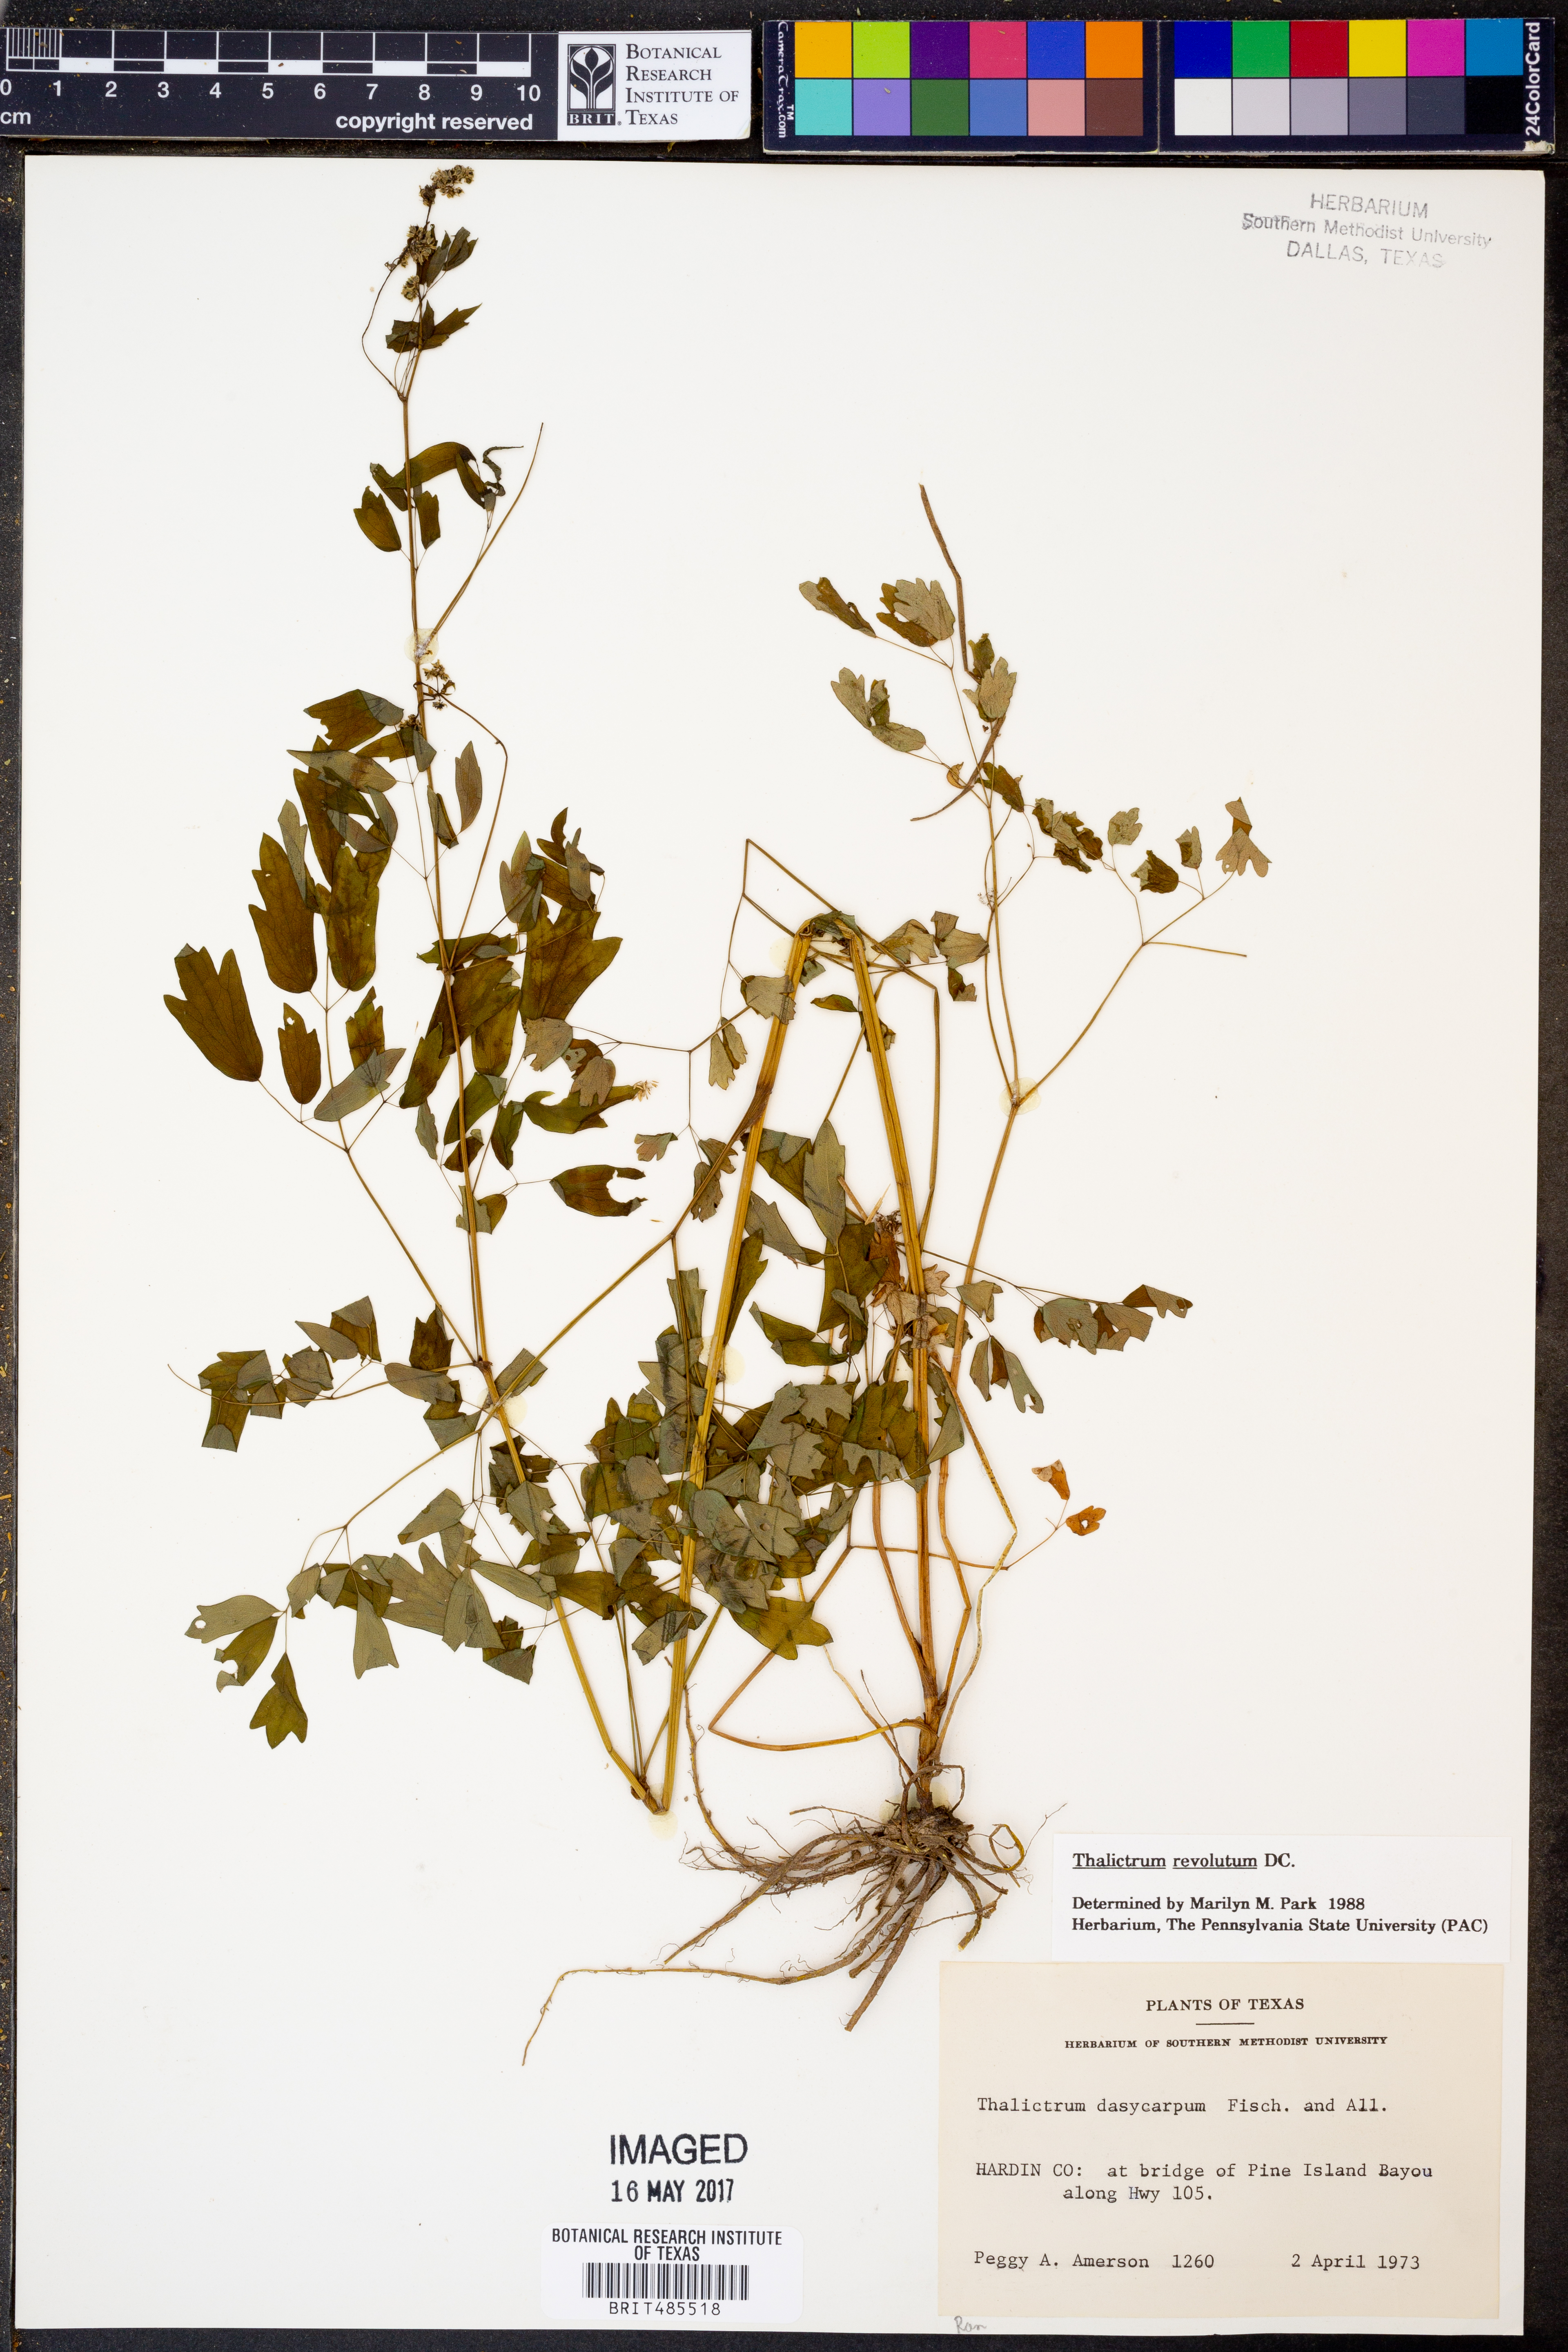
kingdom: Plantae
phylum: Tracheophyta
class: Magnoliopsida
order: Ranunculales
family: Ranunculaceae
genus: Thalictrum
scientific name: Thalictrum revolutum
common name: Waxy meadow-rue
